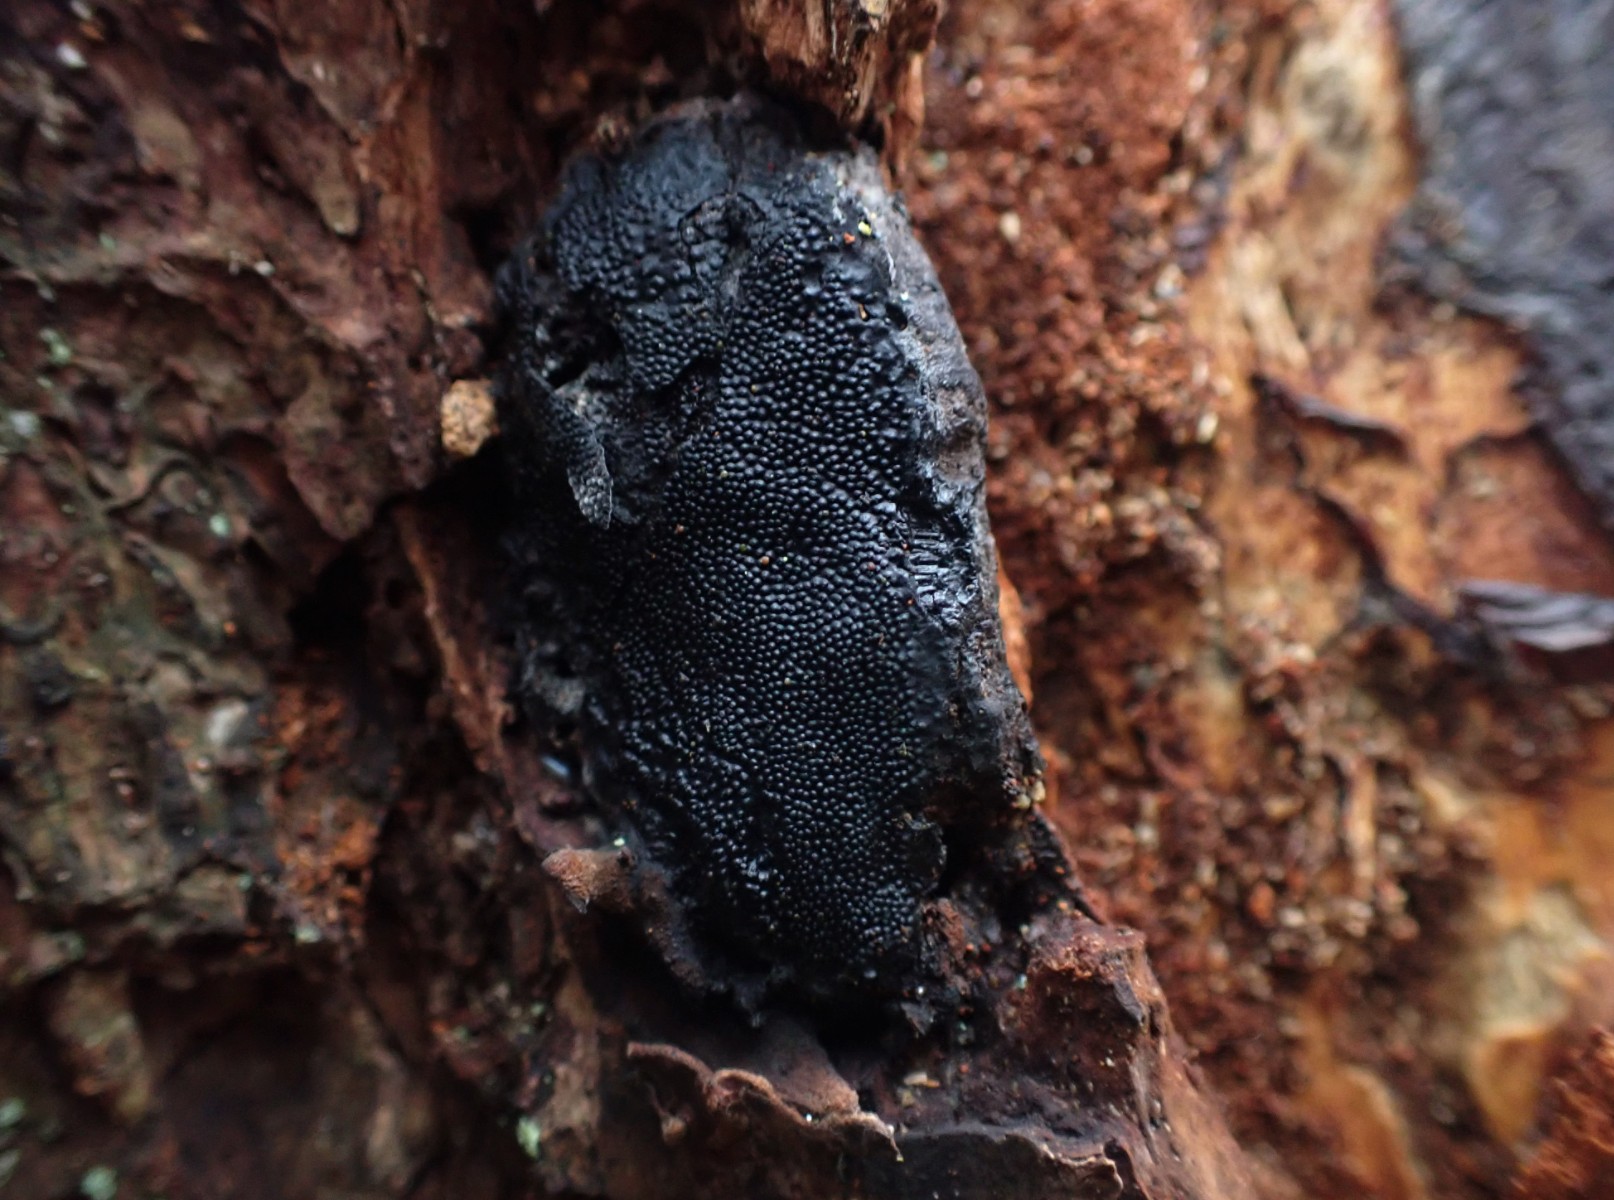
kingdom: Fungi
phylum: Ascomycota
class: Sordariomycetes
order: Boliniales
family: Boliniaceae
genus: Camarops
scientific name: Camarops polysperma
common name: elle-kulsnegl
